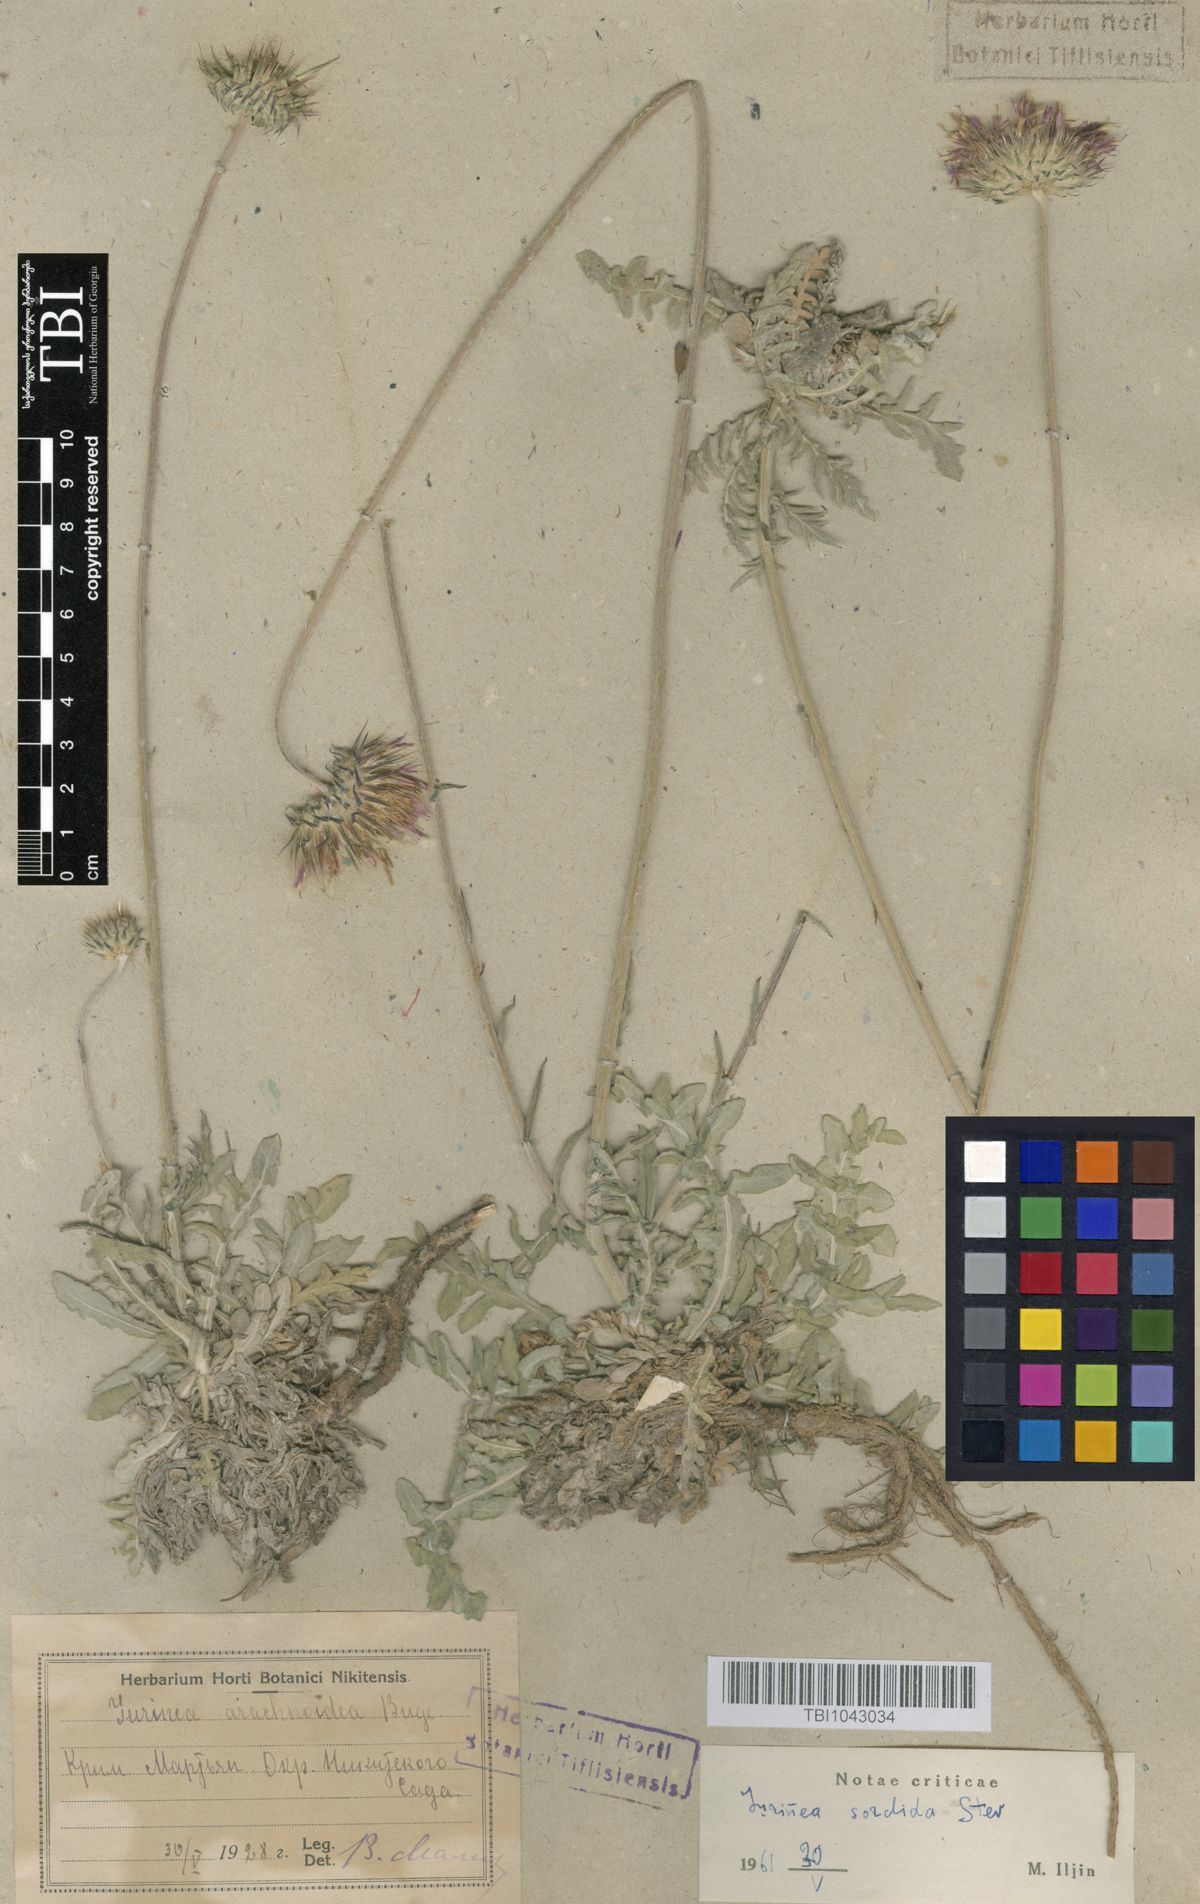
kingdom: Plantae
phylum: Tracheophyta
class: Magnoliopsida
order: Asterales
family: Asteraceae
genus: Jurinea
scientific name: Jurinea roegneri
